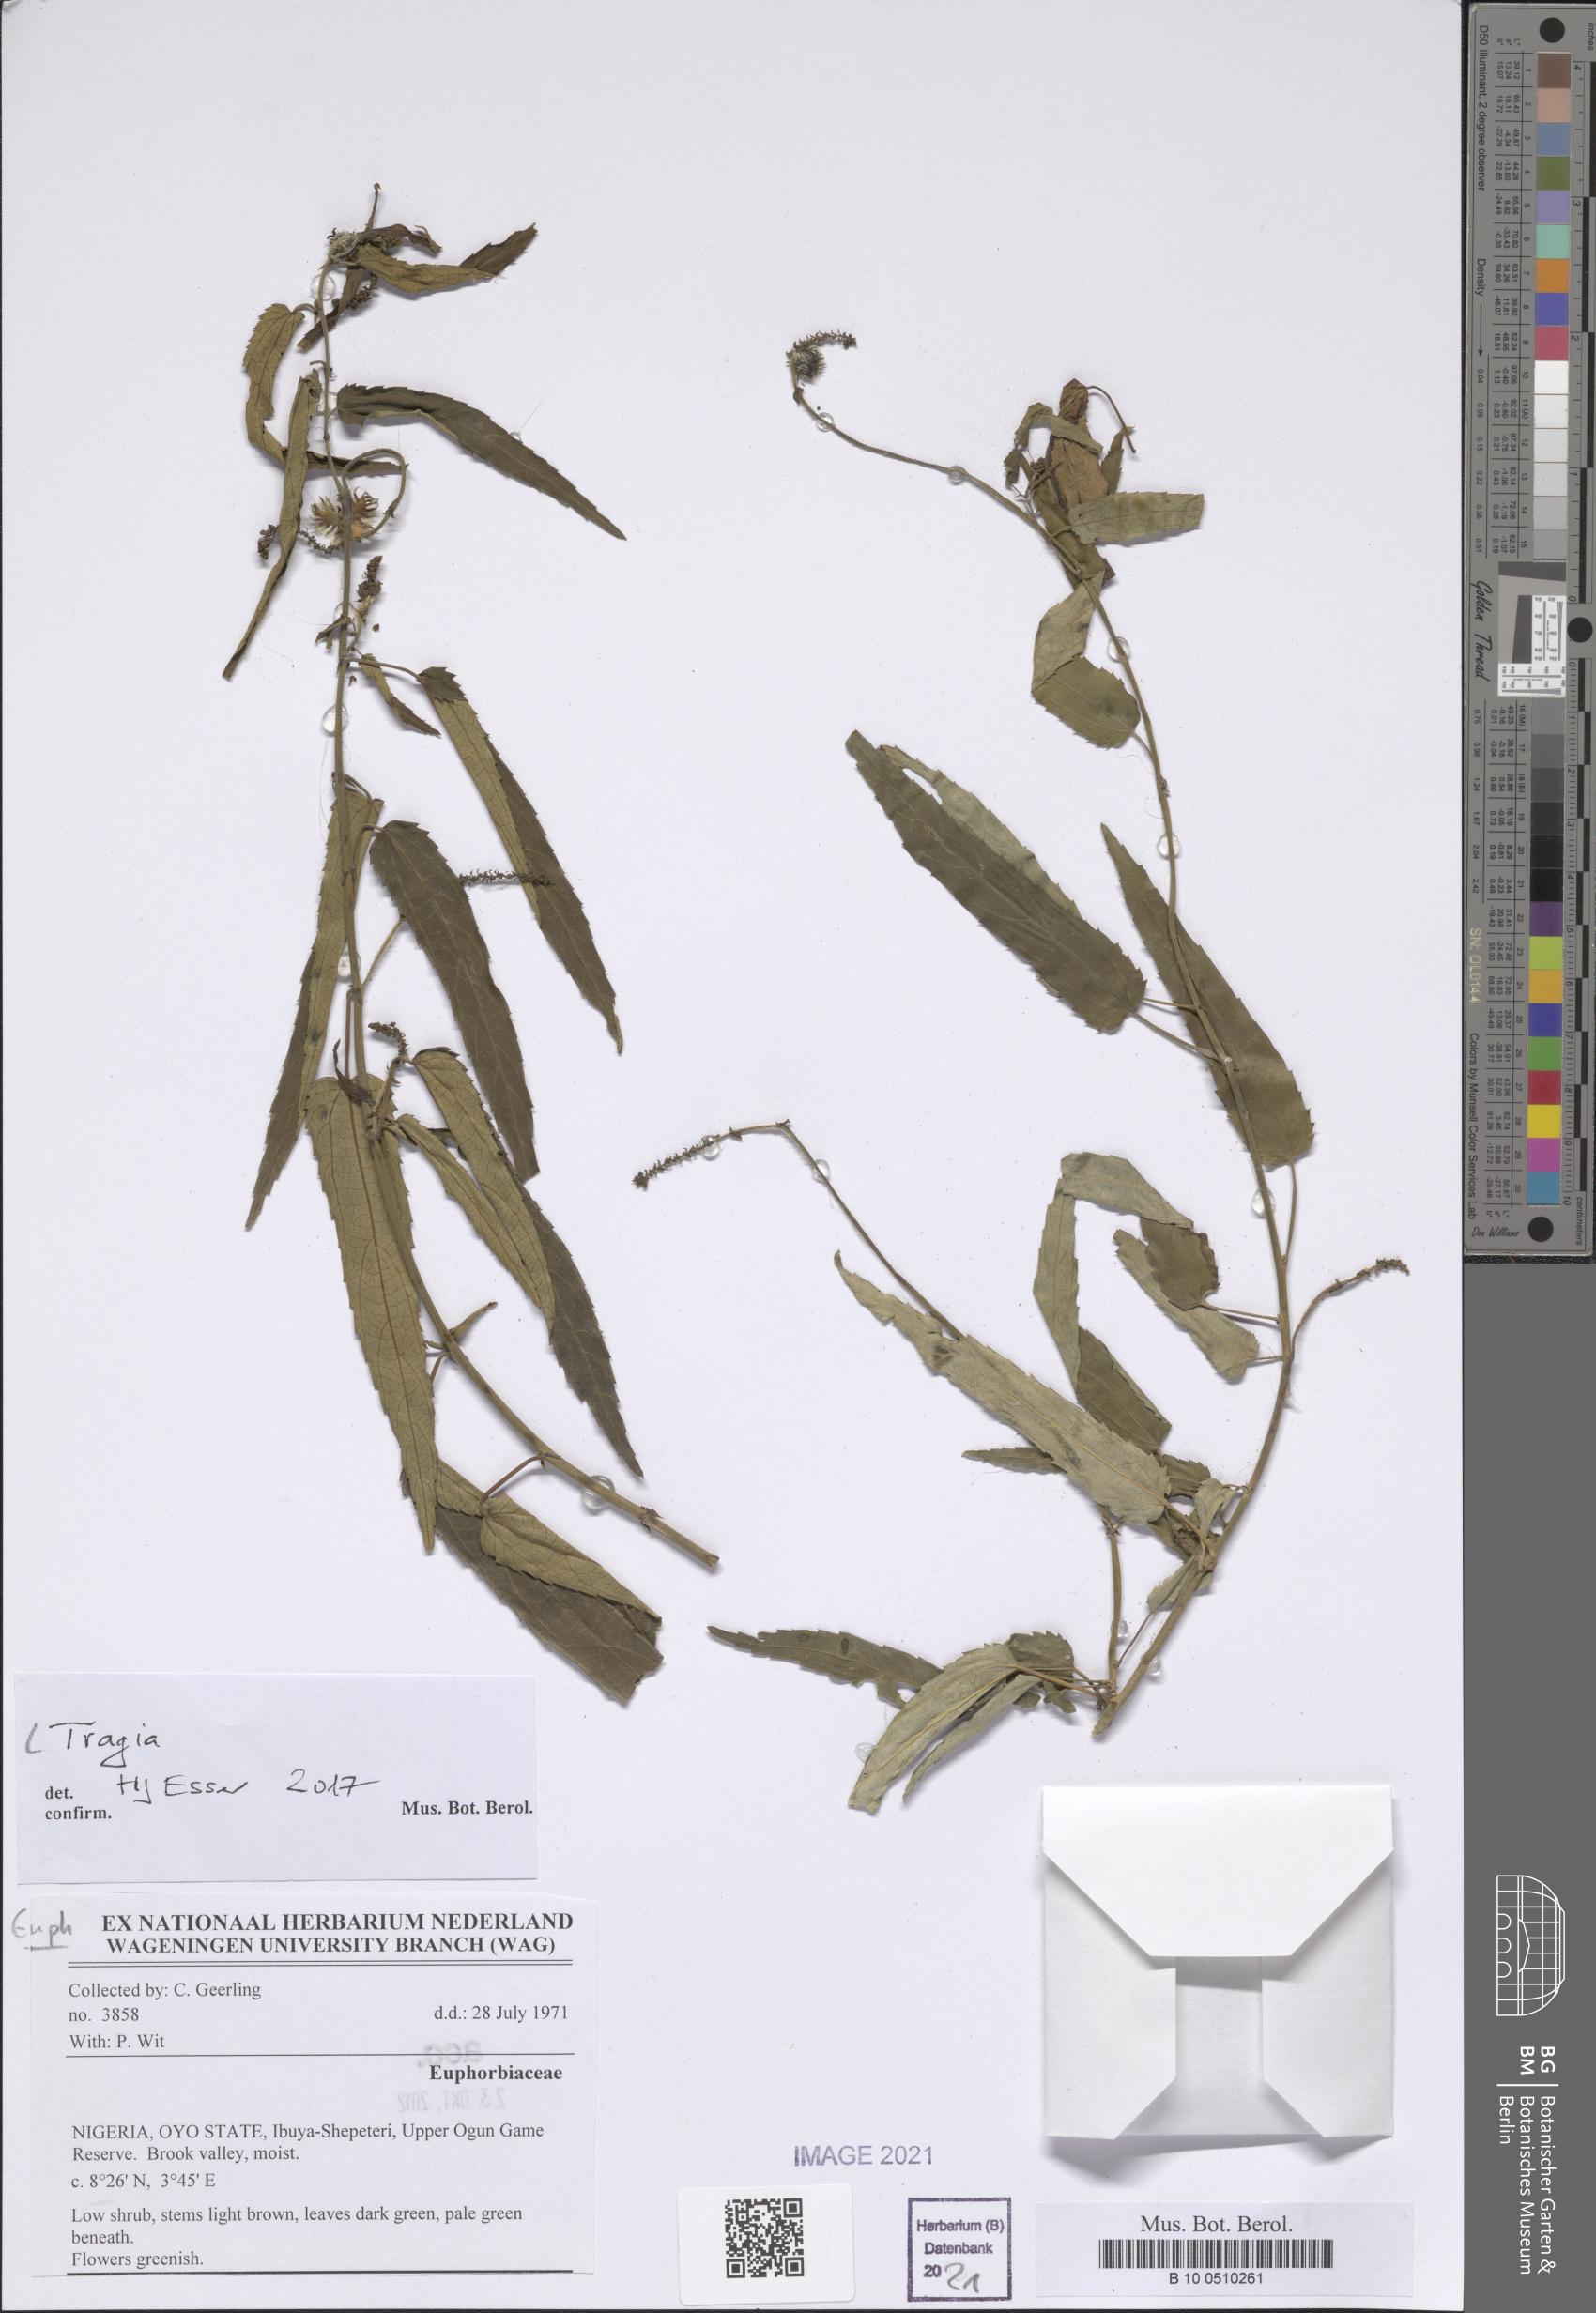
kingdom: Plantae
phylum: Tracheophyta
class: Magnoliopsida
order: Malpighiales
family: Euphorbiaceae
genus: Tragia
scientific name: Tragia
